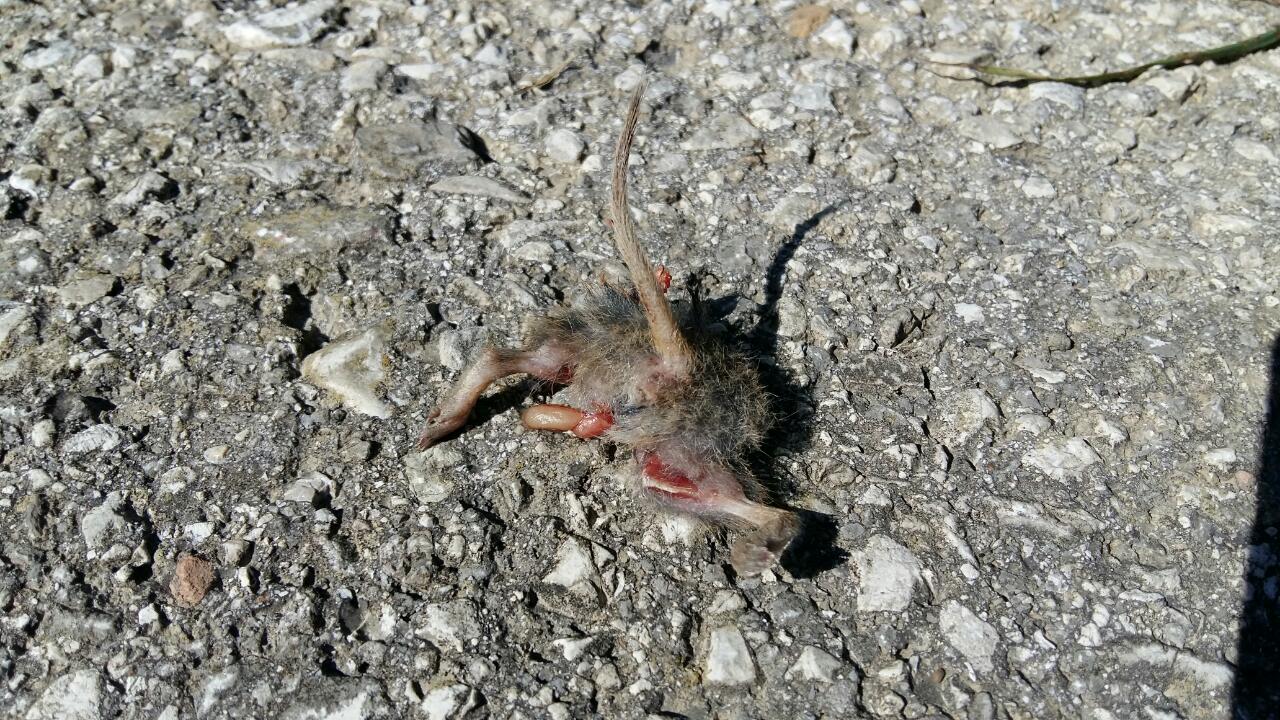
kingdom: Animalia
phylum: Chordata
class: Mammalia
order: Rodentia
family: Cricetidae
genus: Arvicola
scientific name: Arvicola amphibius
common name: European water vole
